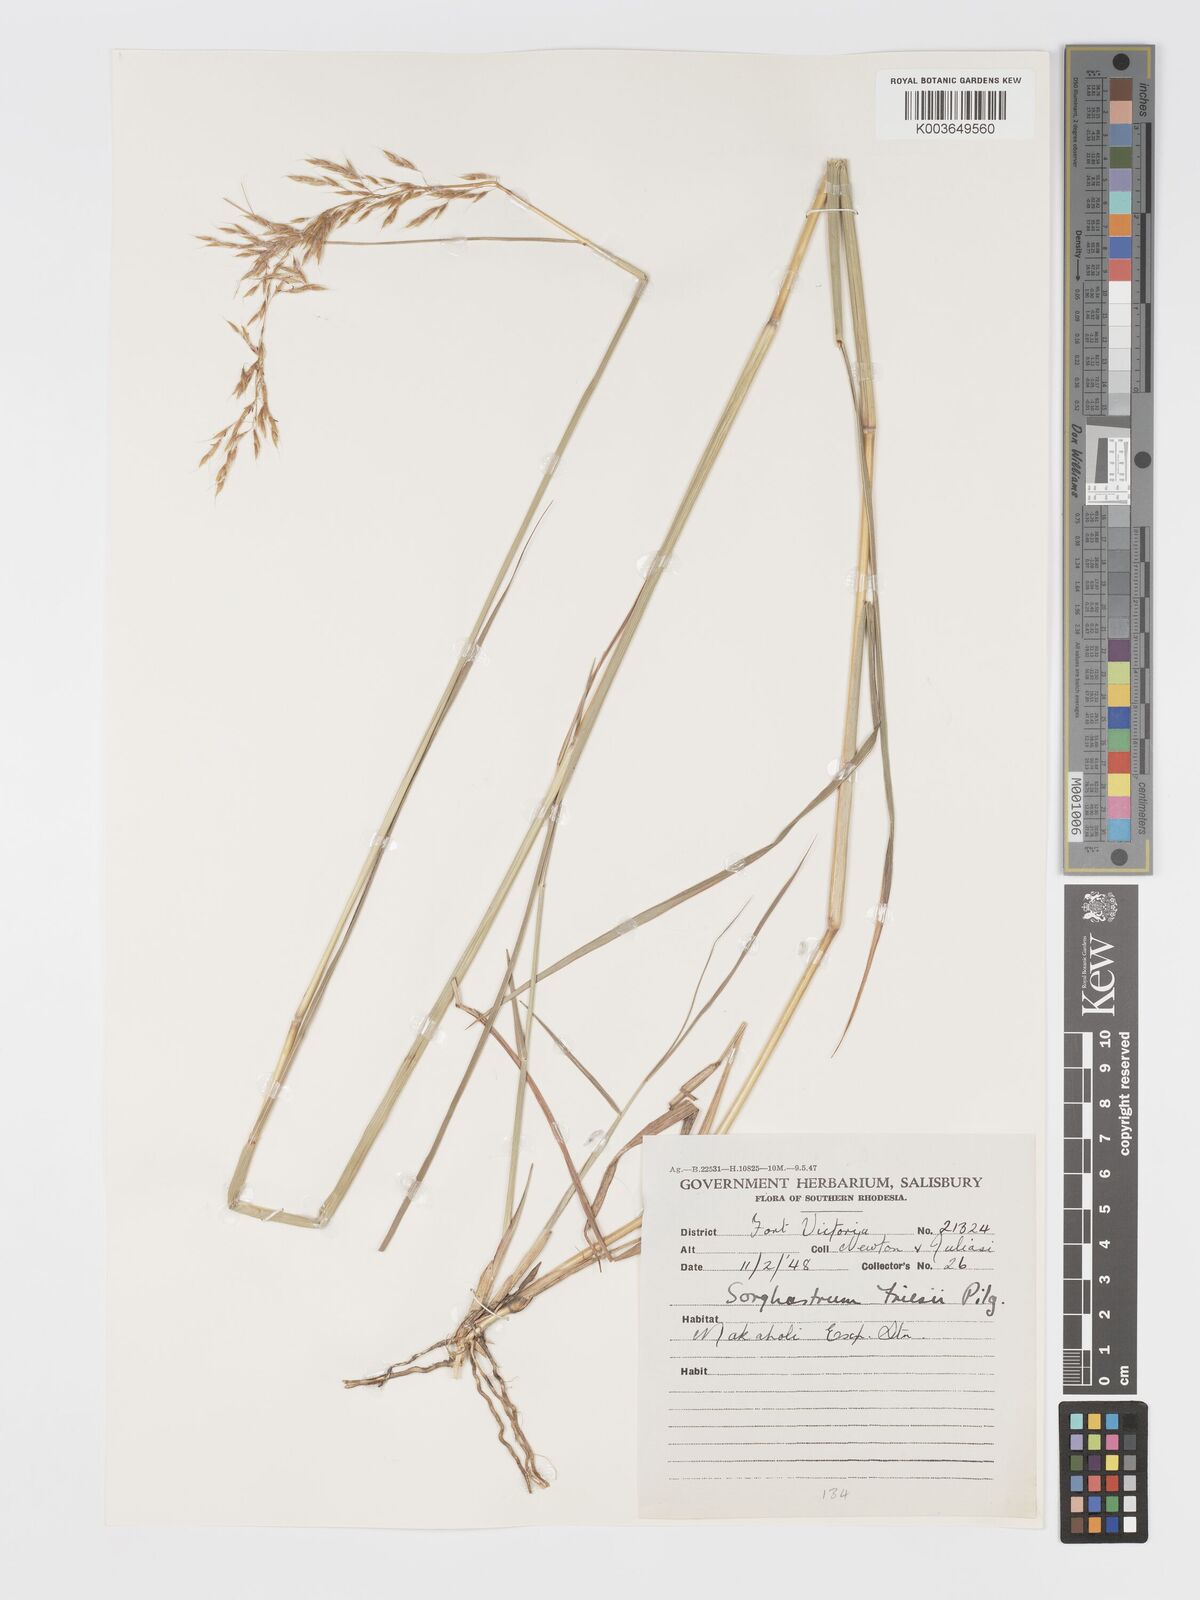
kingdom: Plantae
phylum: Tracheophyta
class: Liliopsida
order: Poales
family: Poaceae
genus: Sorghastrum
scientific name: Sorghastrum nudipes
